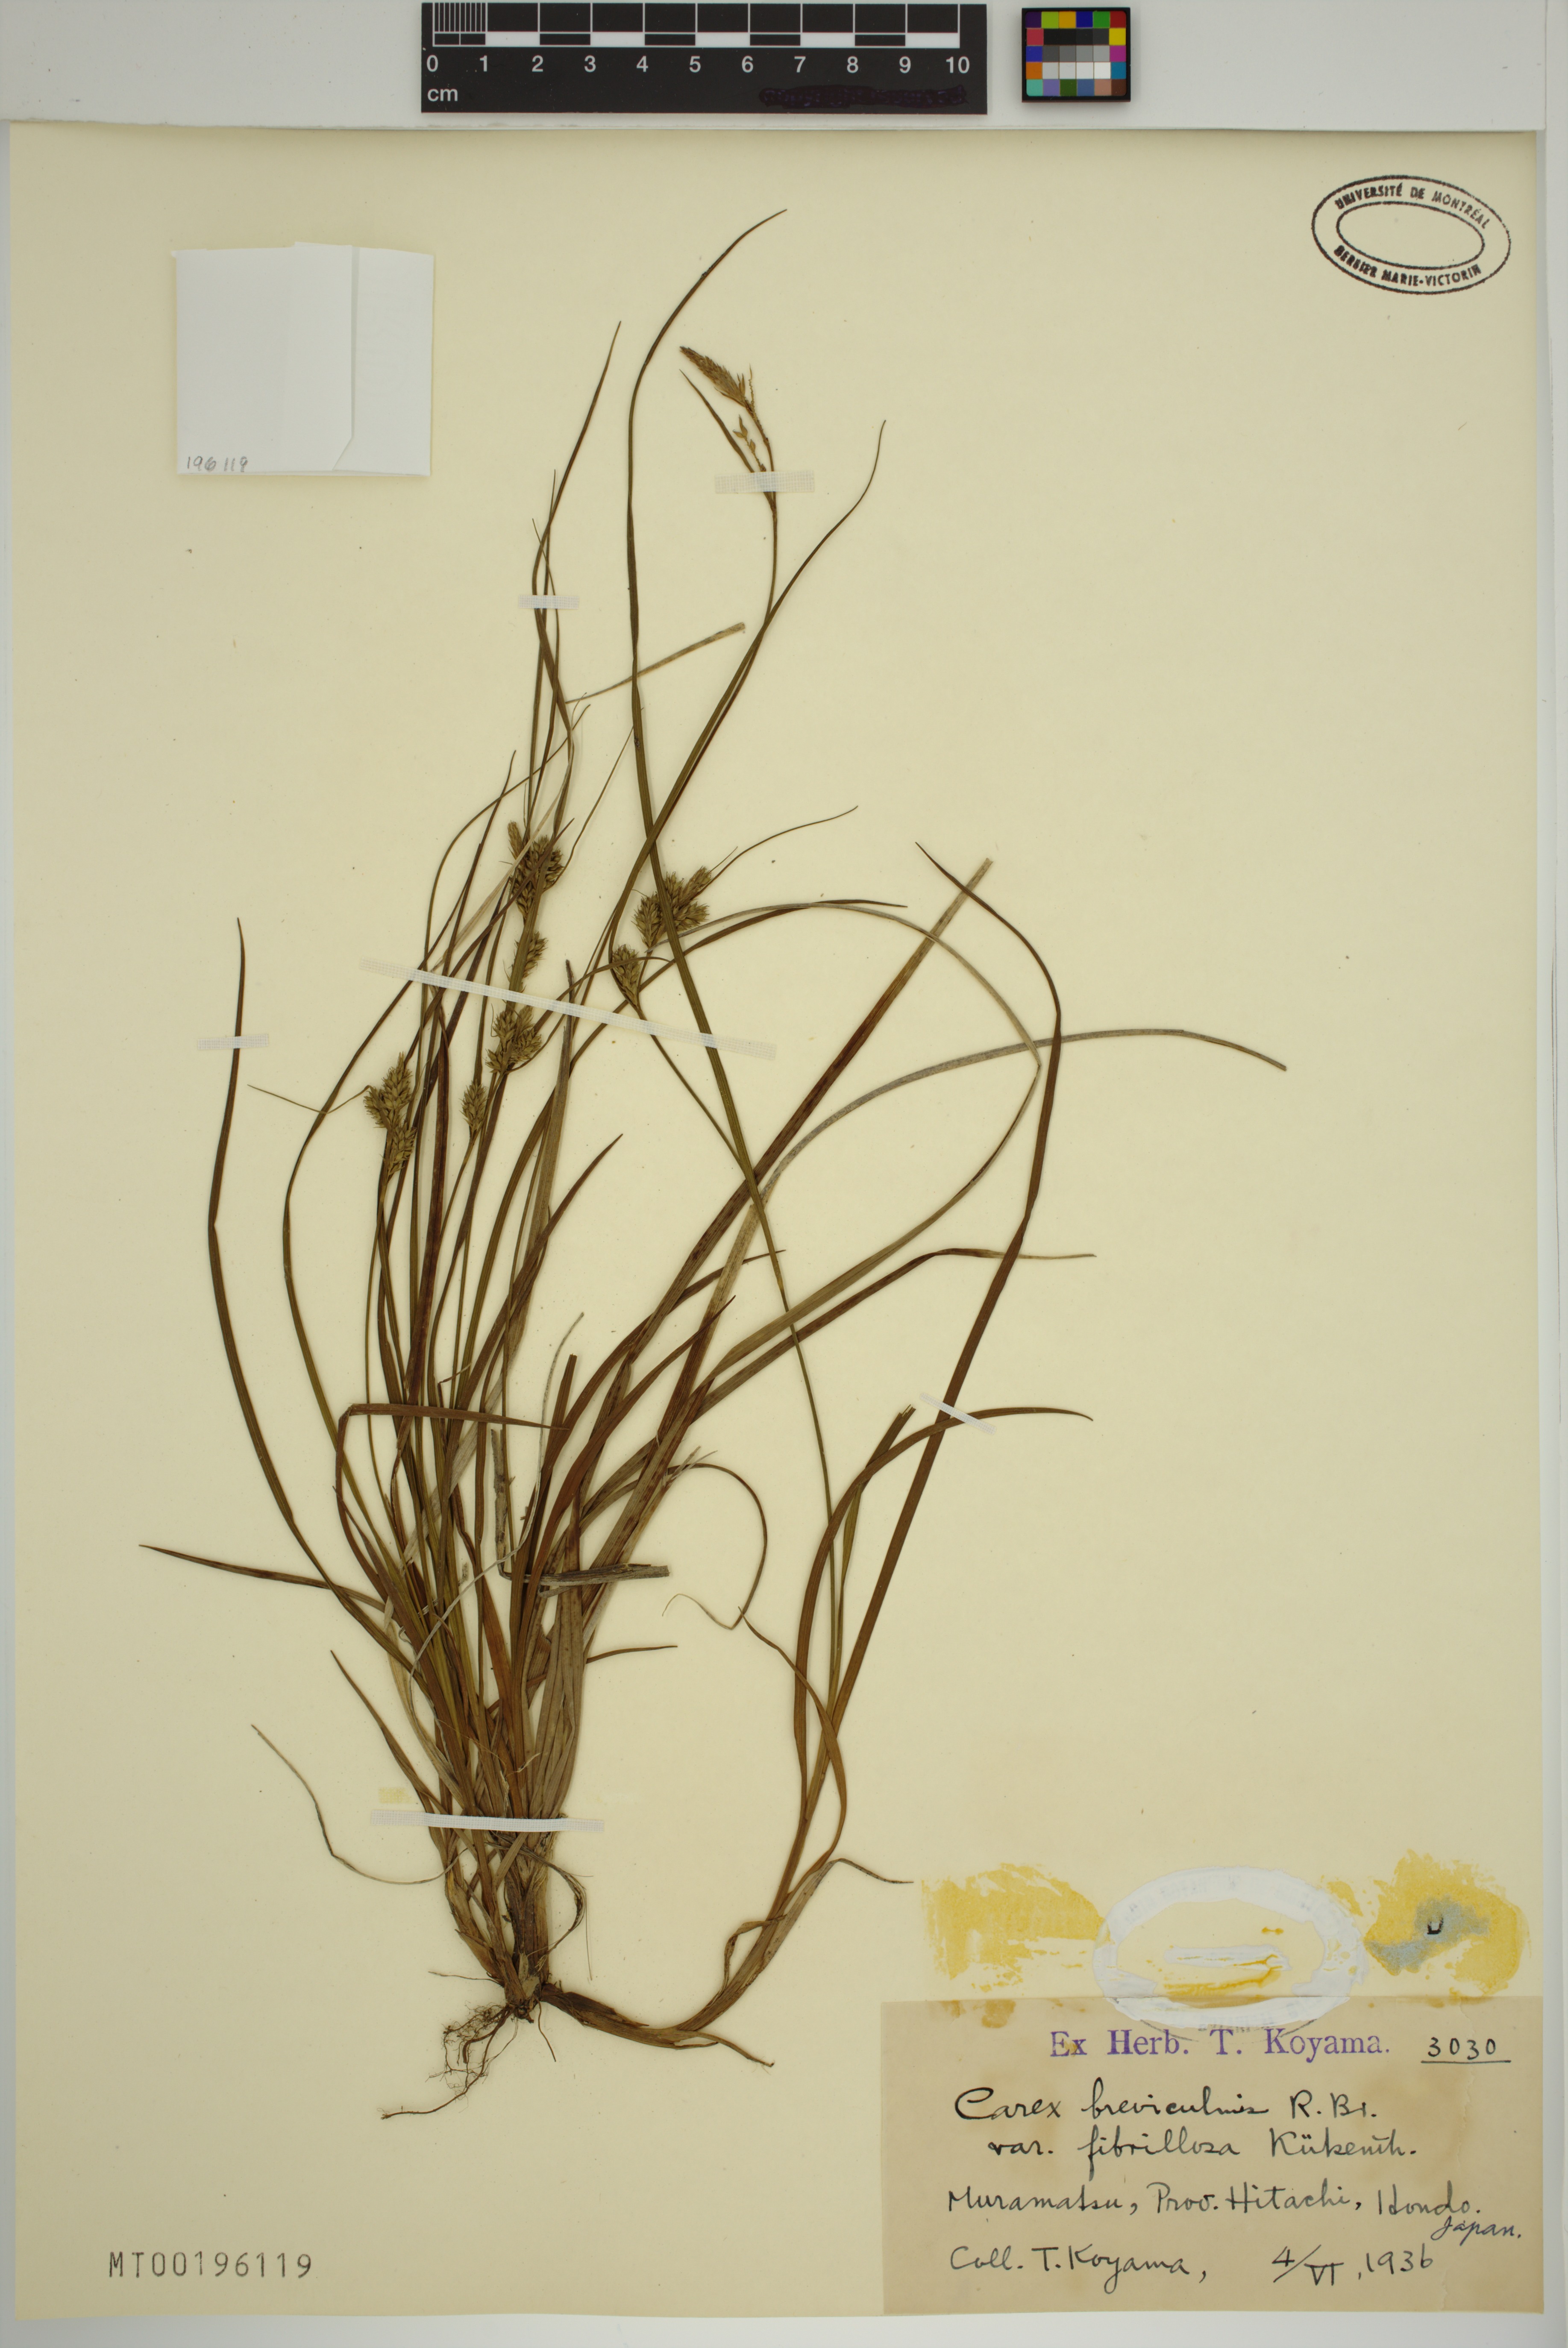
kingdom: Plantae
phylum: Tracheophyta
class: Liliopsida
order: Poales
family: Cyperaceae
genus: Carex
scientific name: Carex fibrillosa
